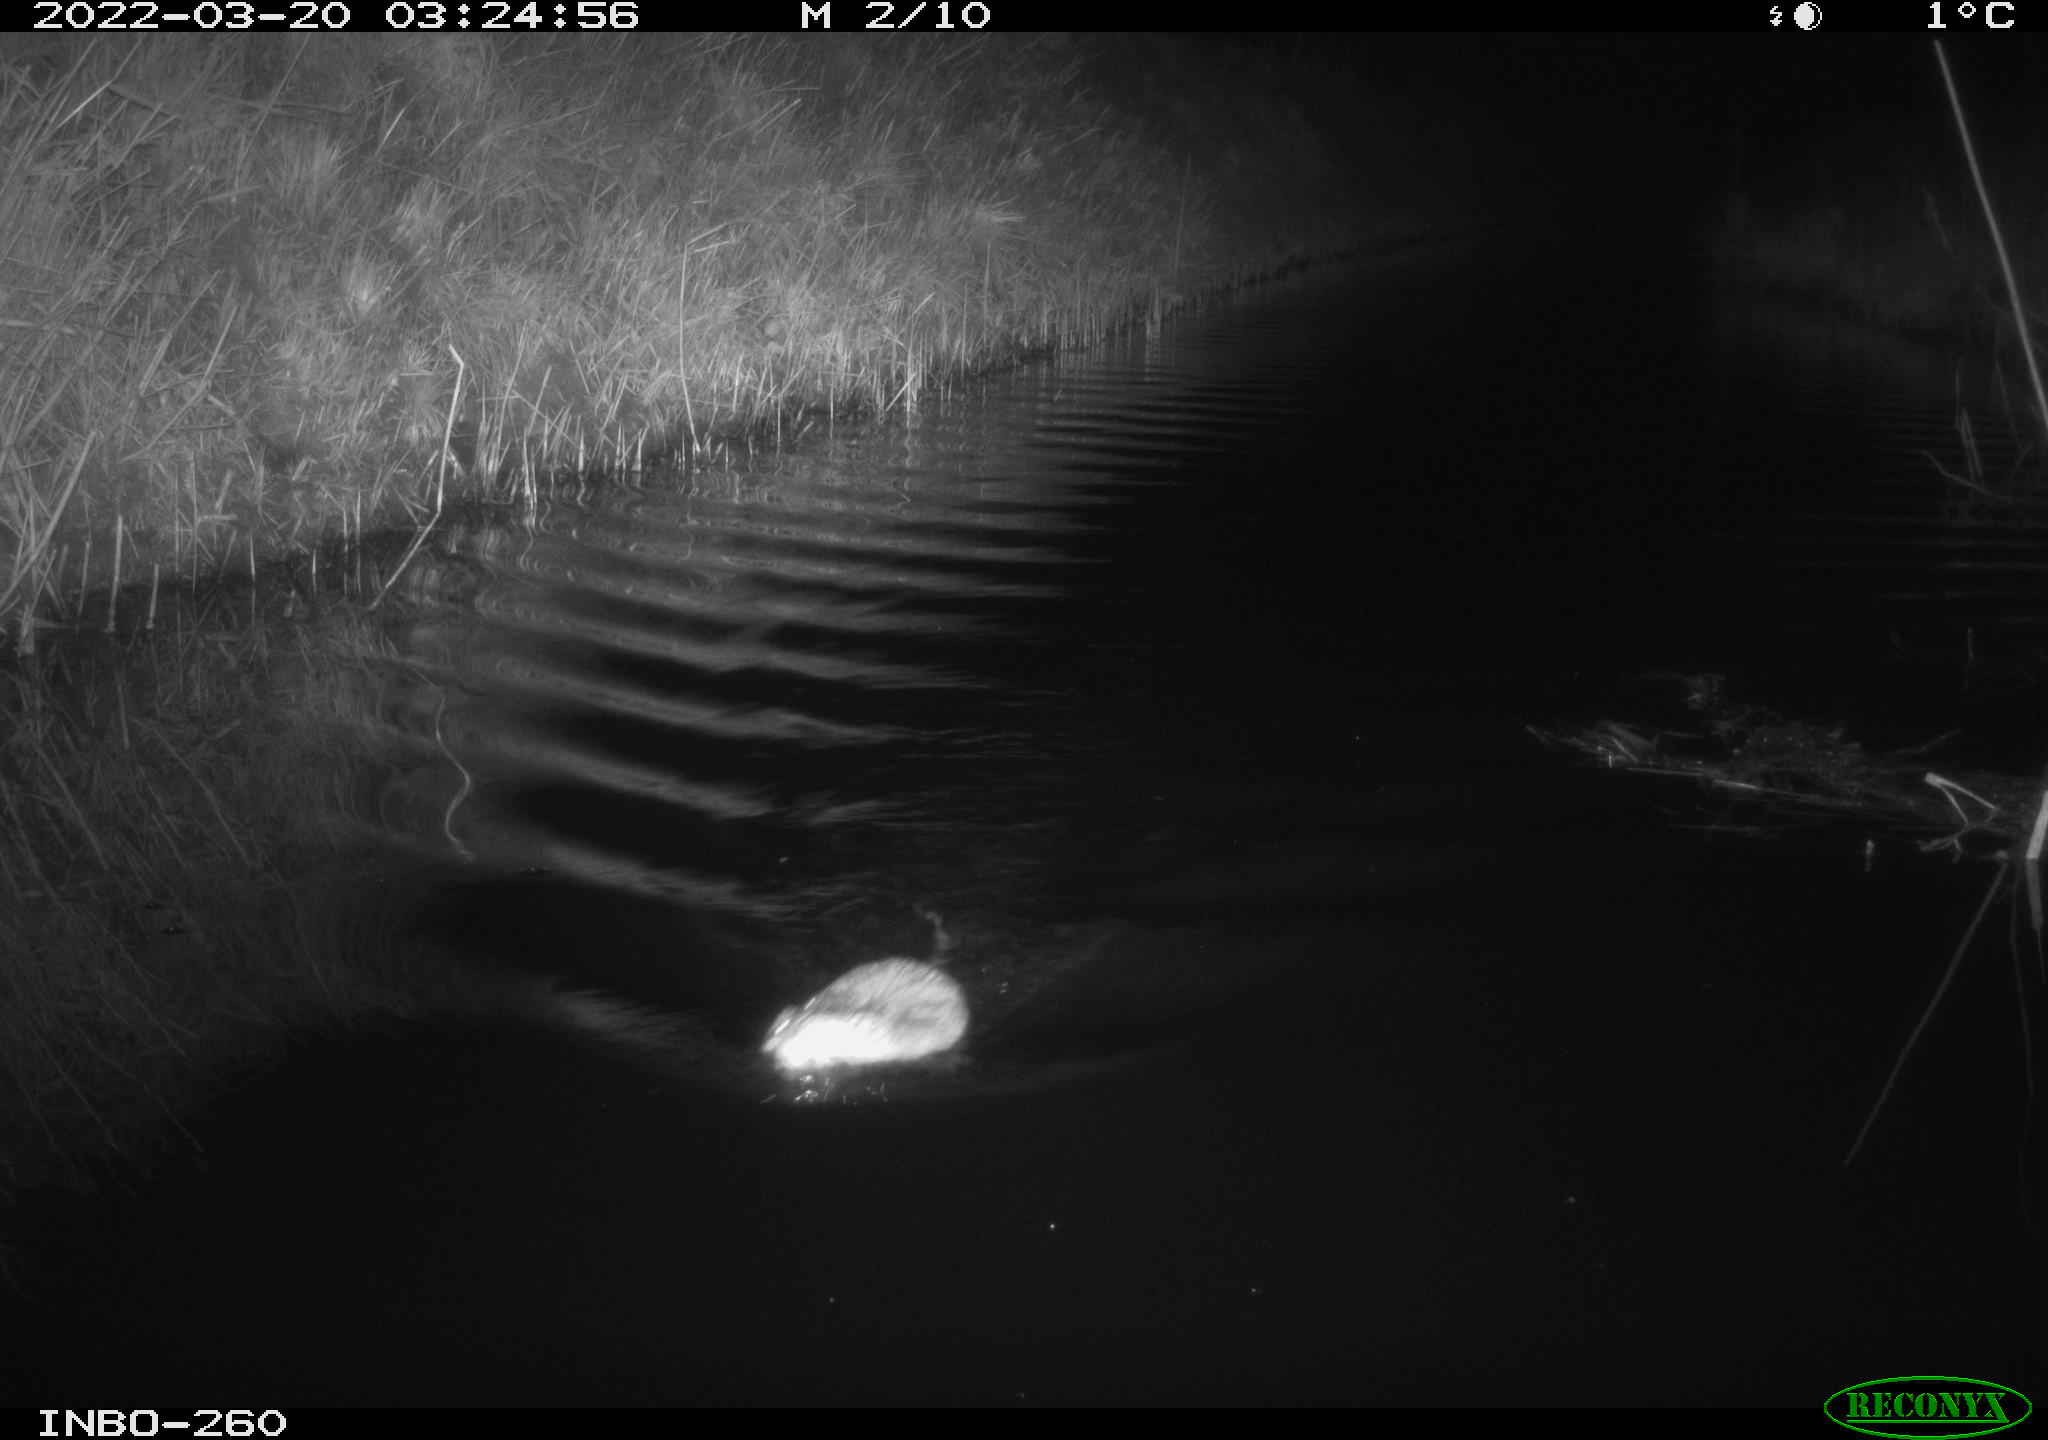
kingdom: Animalia
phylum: Chordata
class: Mammalia
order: Rodentia
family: Cricetidae
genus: Ondatra
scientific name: Ondatra zibethicus
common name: Muskrat
